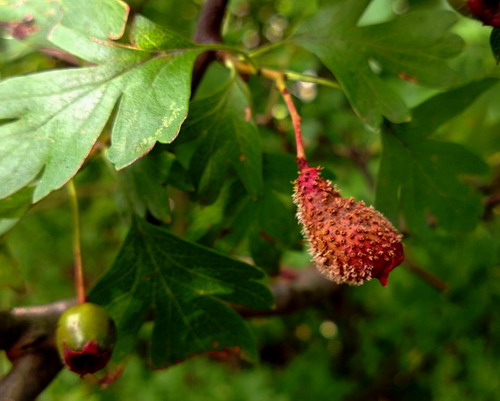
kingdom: Fungi
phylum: Basidiomycota
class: Pucciniomycetes
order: Pucciniales
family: Gymnosporangiaceae
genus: Gymnosporangium
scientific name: Gymnosporangium clavariiforme
